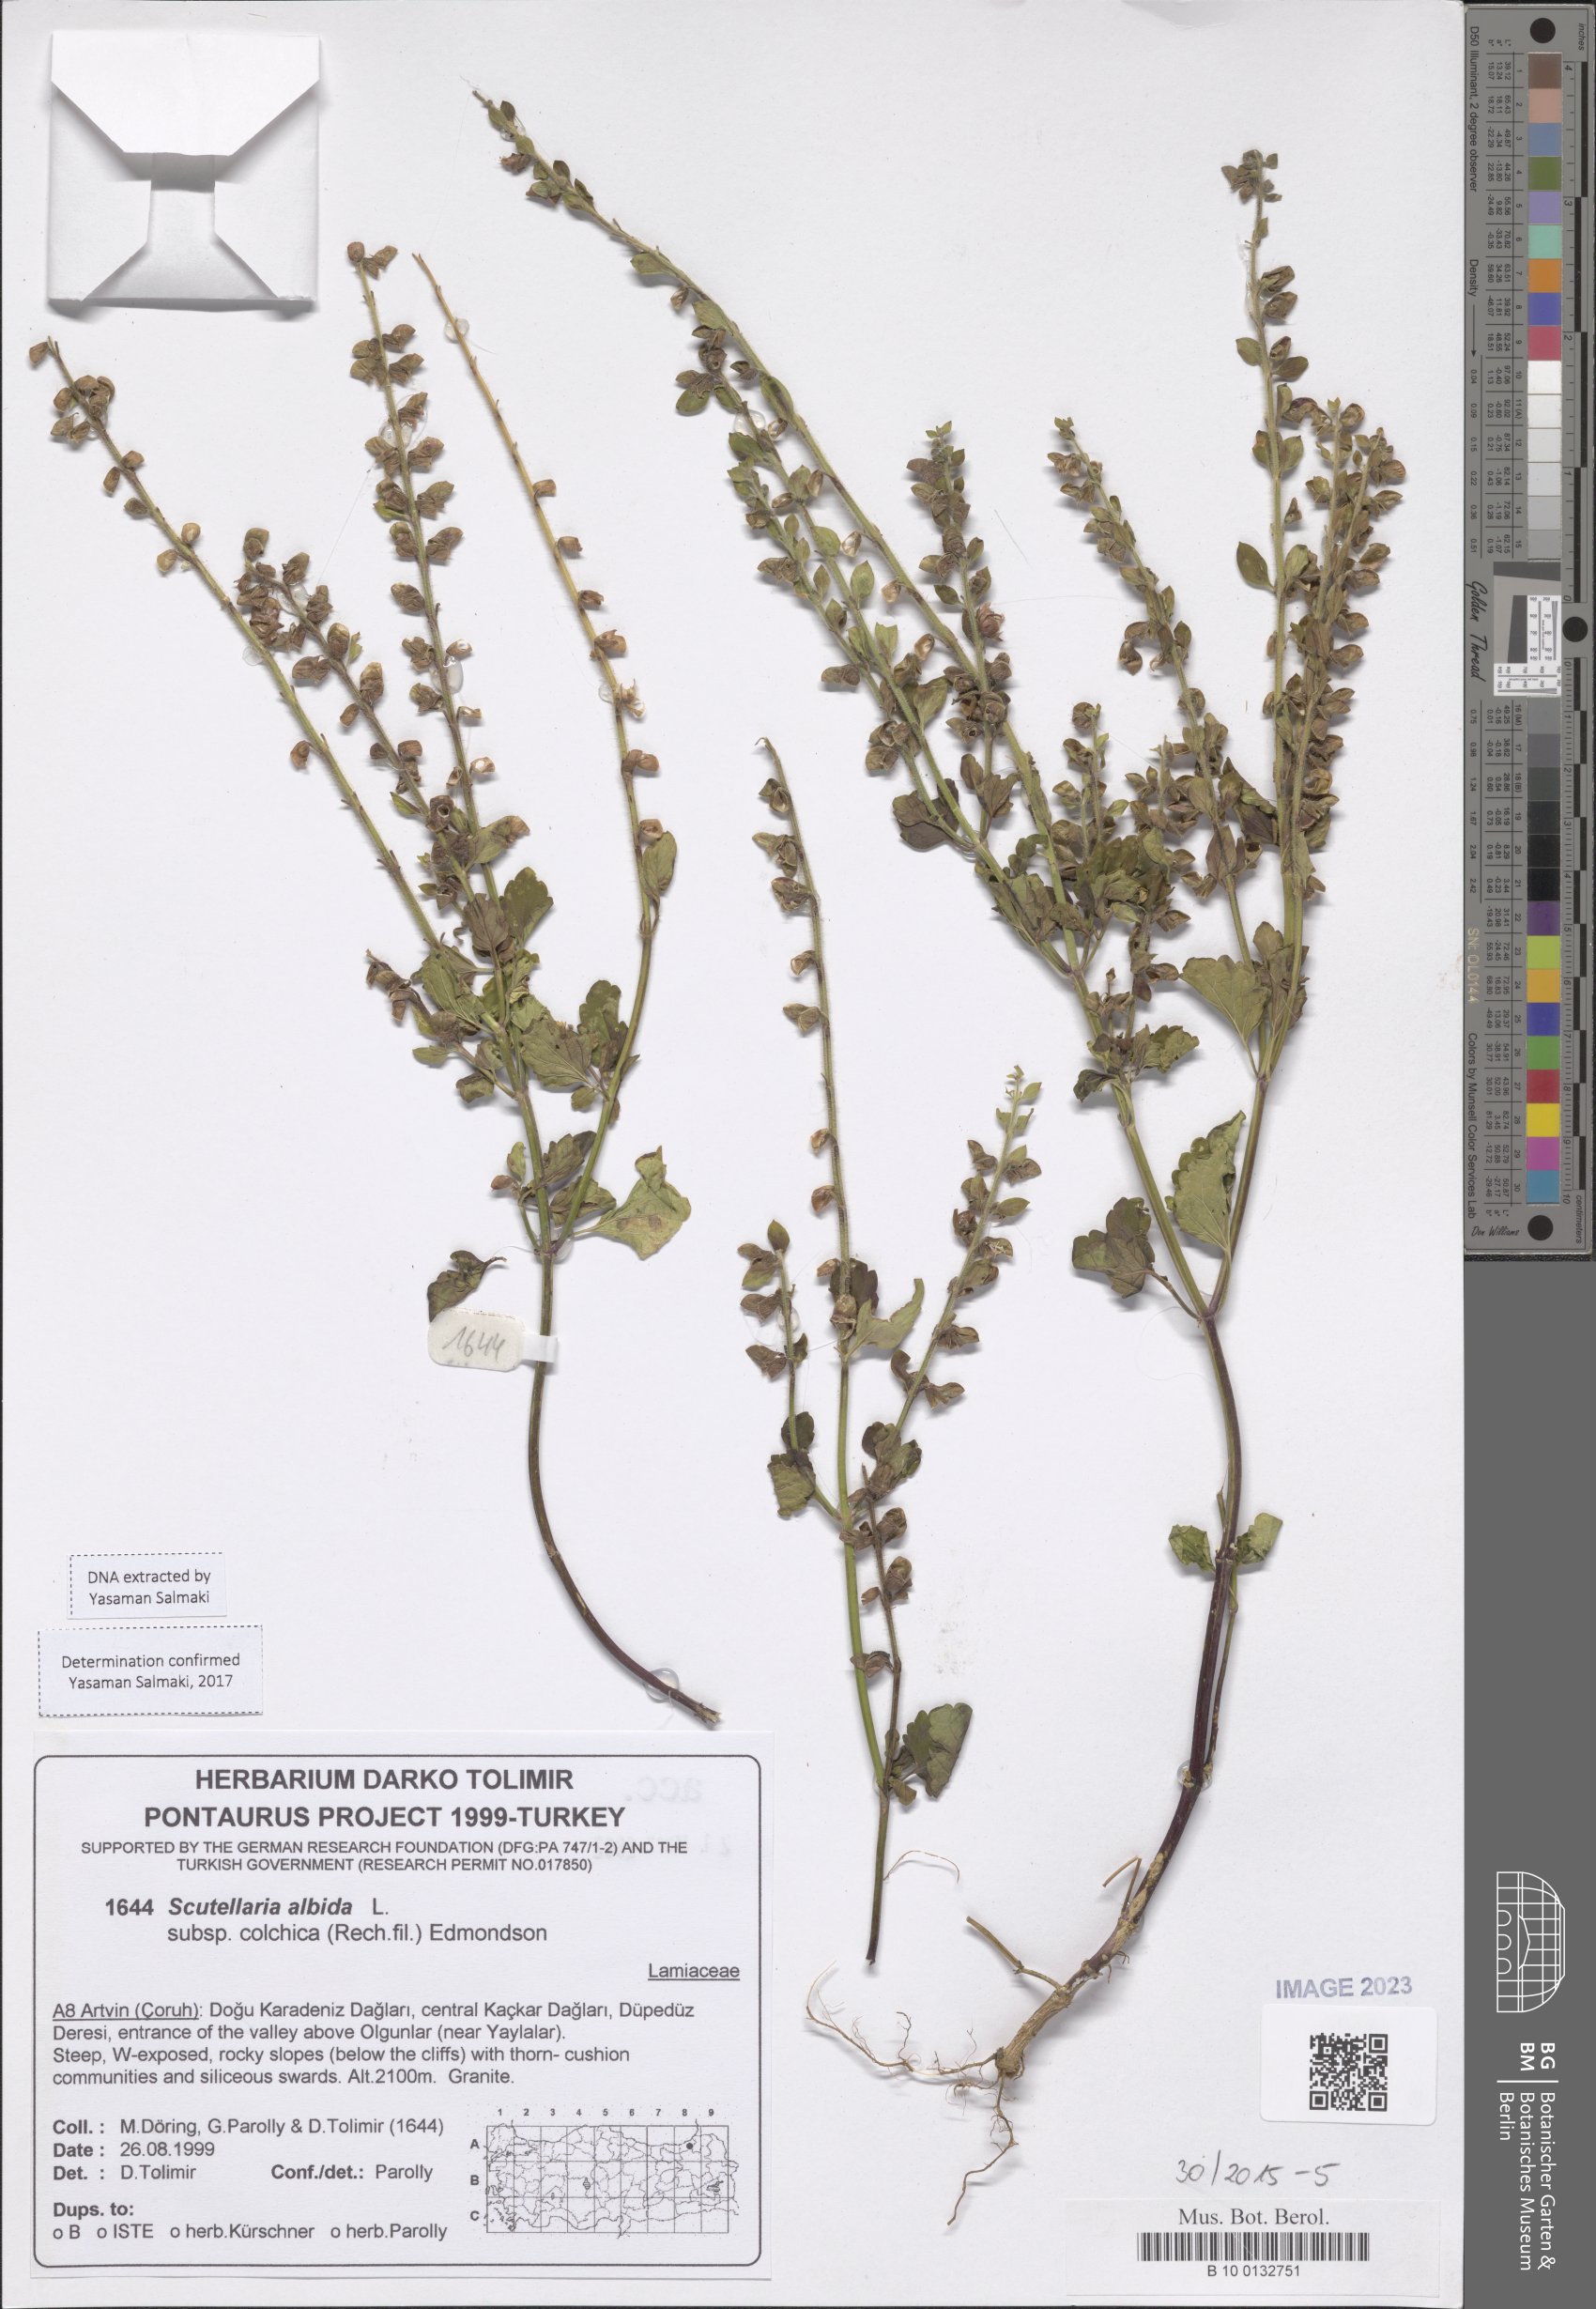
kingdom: Plantae
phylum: Tracheophyta
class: Magnoliopsida
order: Lamiales
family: Lamiaceae
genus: Scutellaria
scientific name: Scutellaria albida
